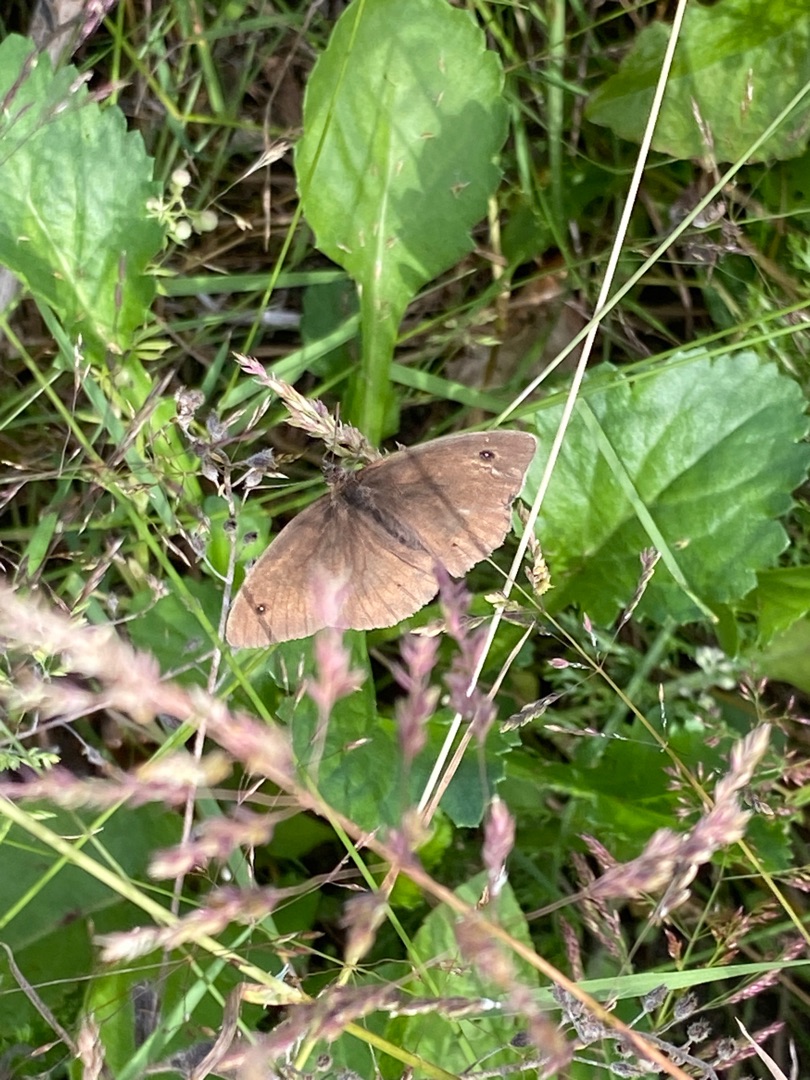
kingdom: Animalia
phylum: Arthropoda
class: Insecta
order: Lepidoptera
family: Nymphalidae
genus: Maniola
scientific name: Maniola jurtina
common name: Græsrandøje
